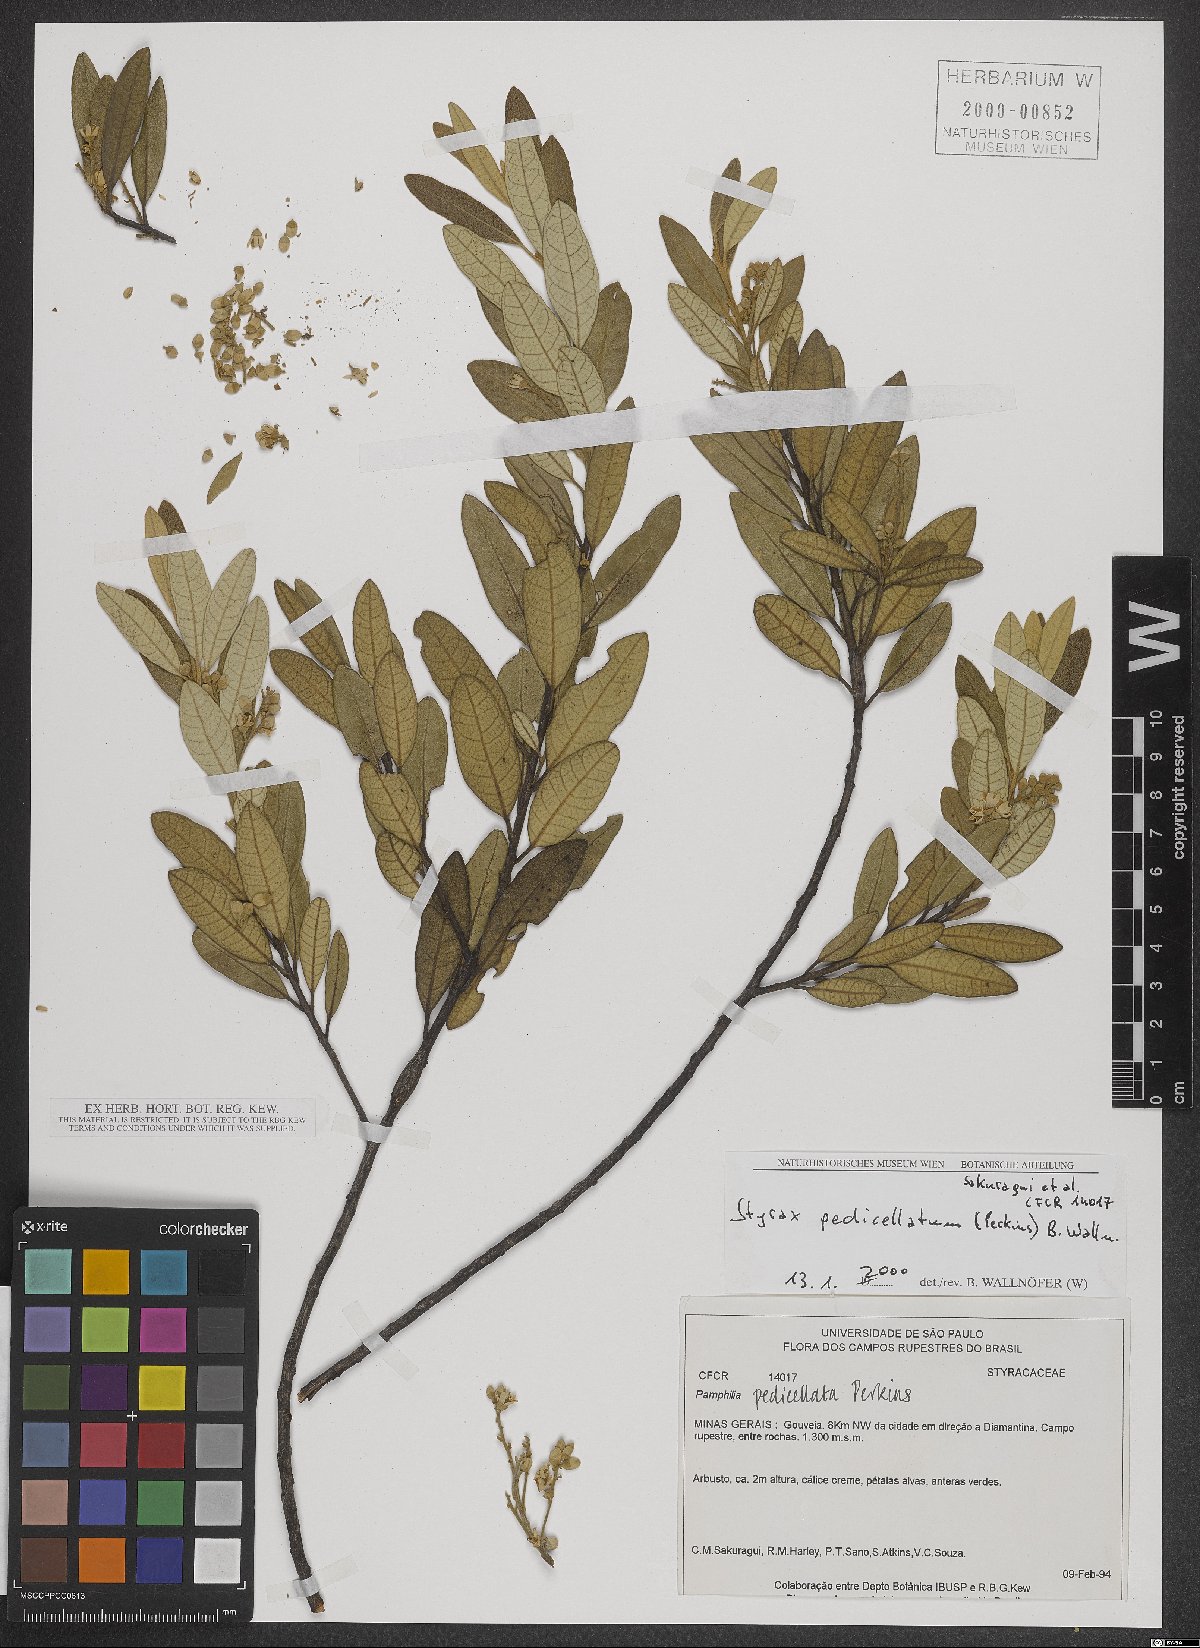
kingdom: Plantae
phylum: Tracheophyta
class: Magnoliopsida
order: Ericales
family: Styracaceae
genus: Styrax
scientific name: Styrax pedicellatus
